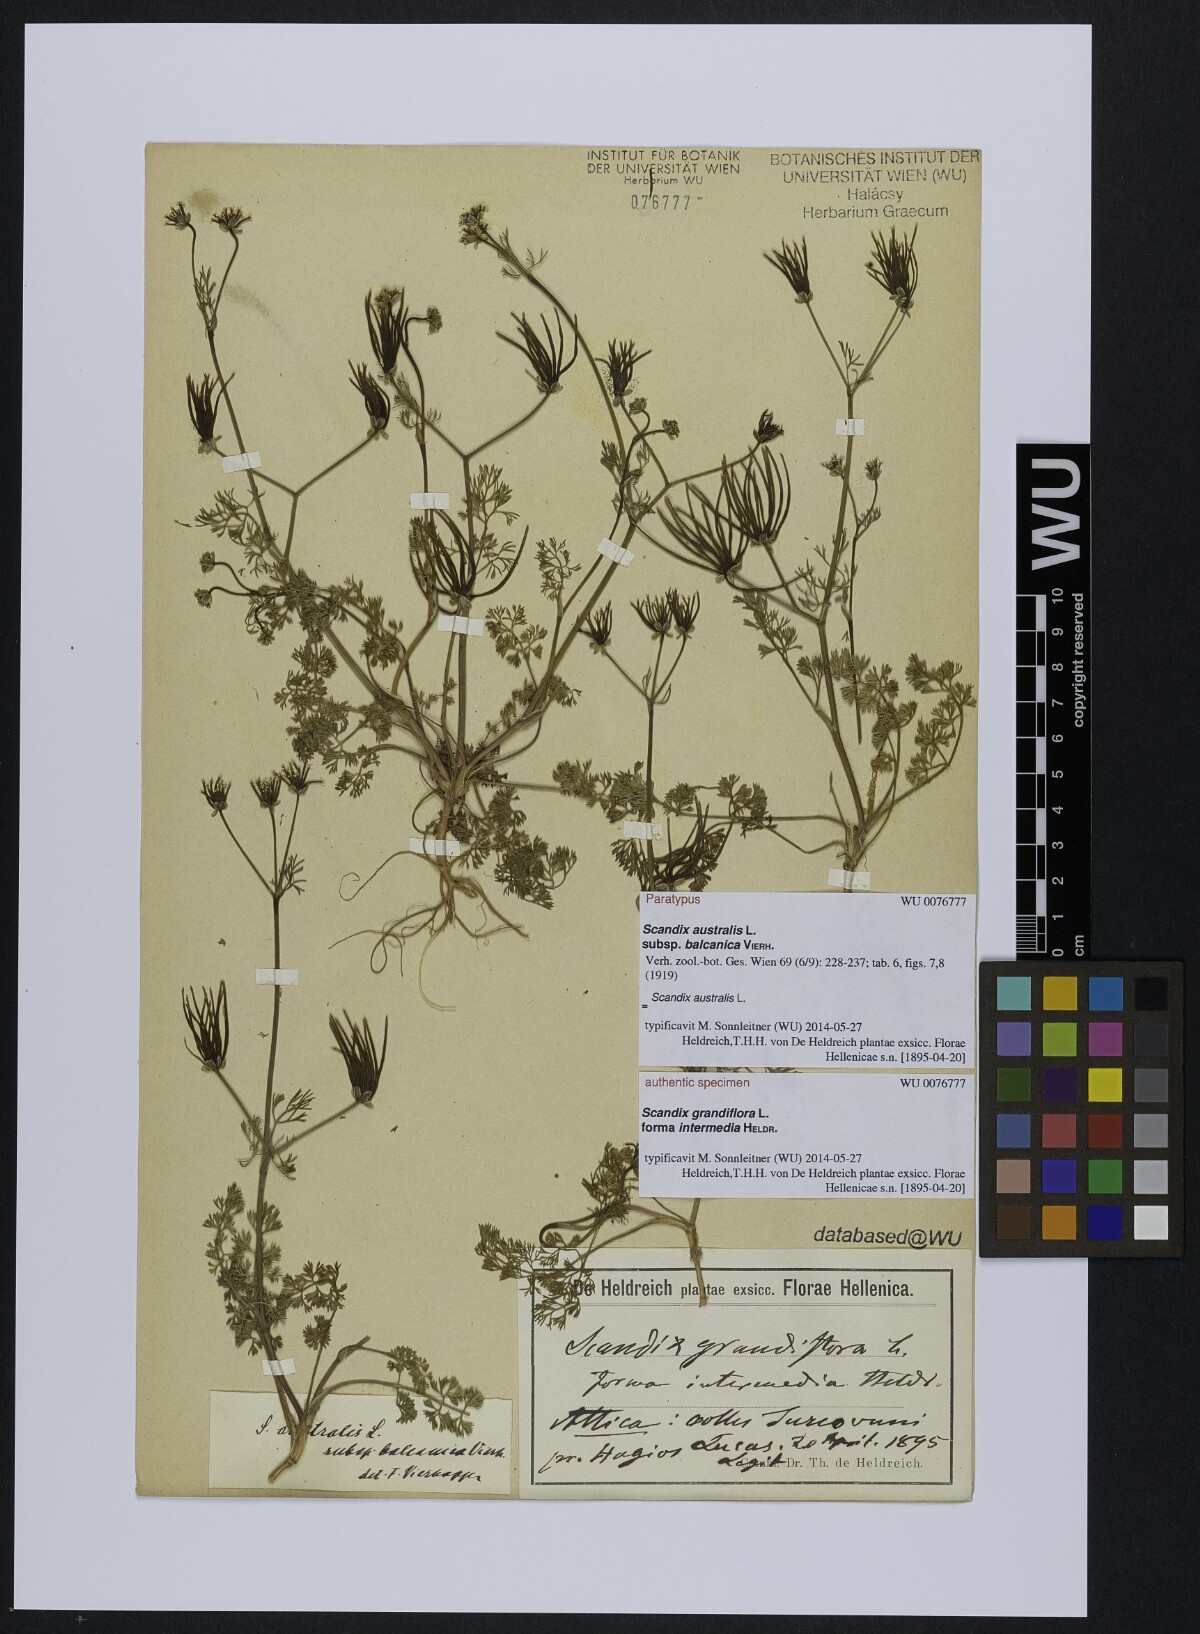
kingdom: Plantae
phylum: Tracheophyta
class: Magnoliopsida
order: Apiales
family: Apiaceae
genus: Scandix
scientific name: Scandix australis
